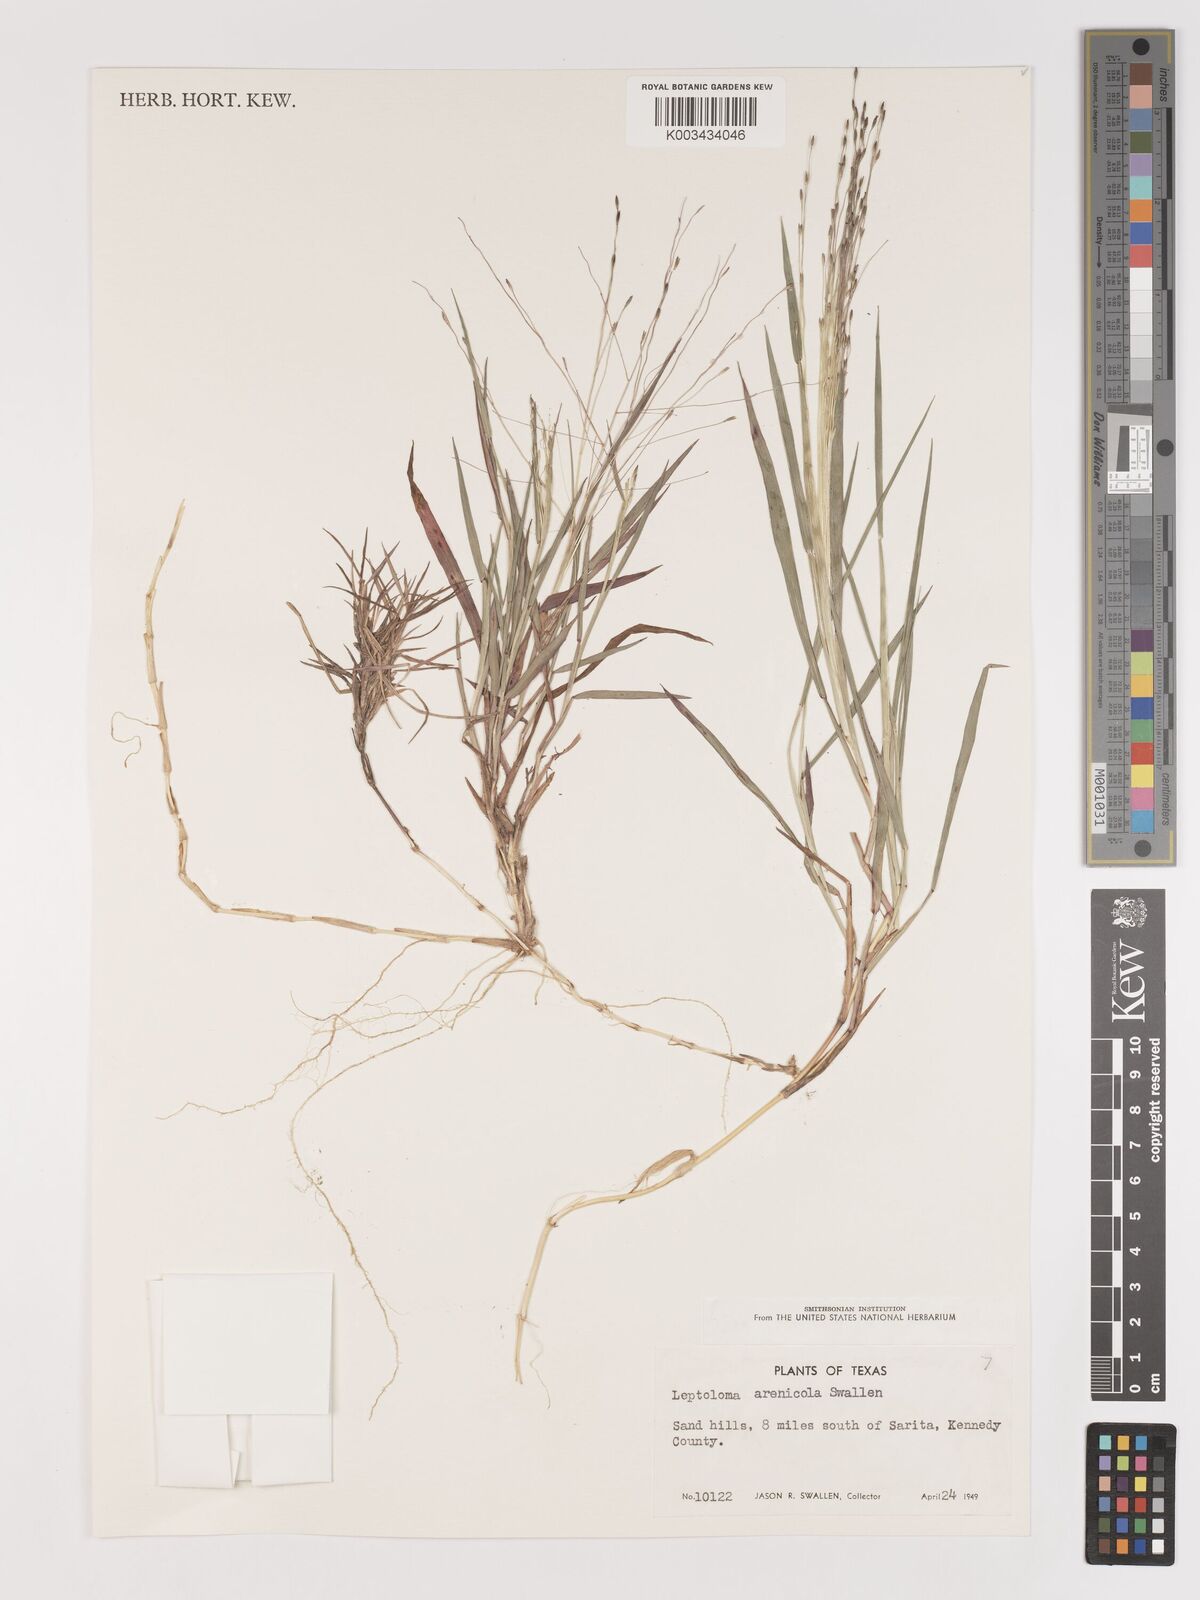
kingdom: Plantae
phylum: Tracheophyta
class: Liliopsida
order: Poales
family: Poaceae
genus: Digitaria
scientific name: Digitaria arenicola
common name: Sand witchgrass
